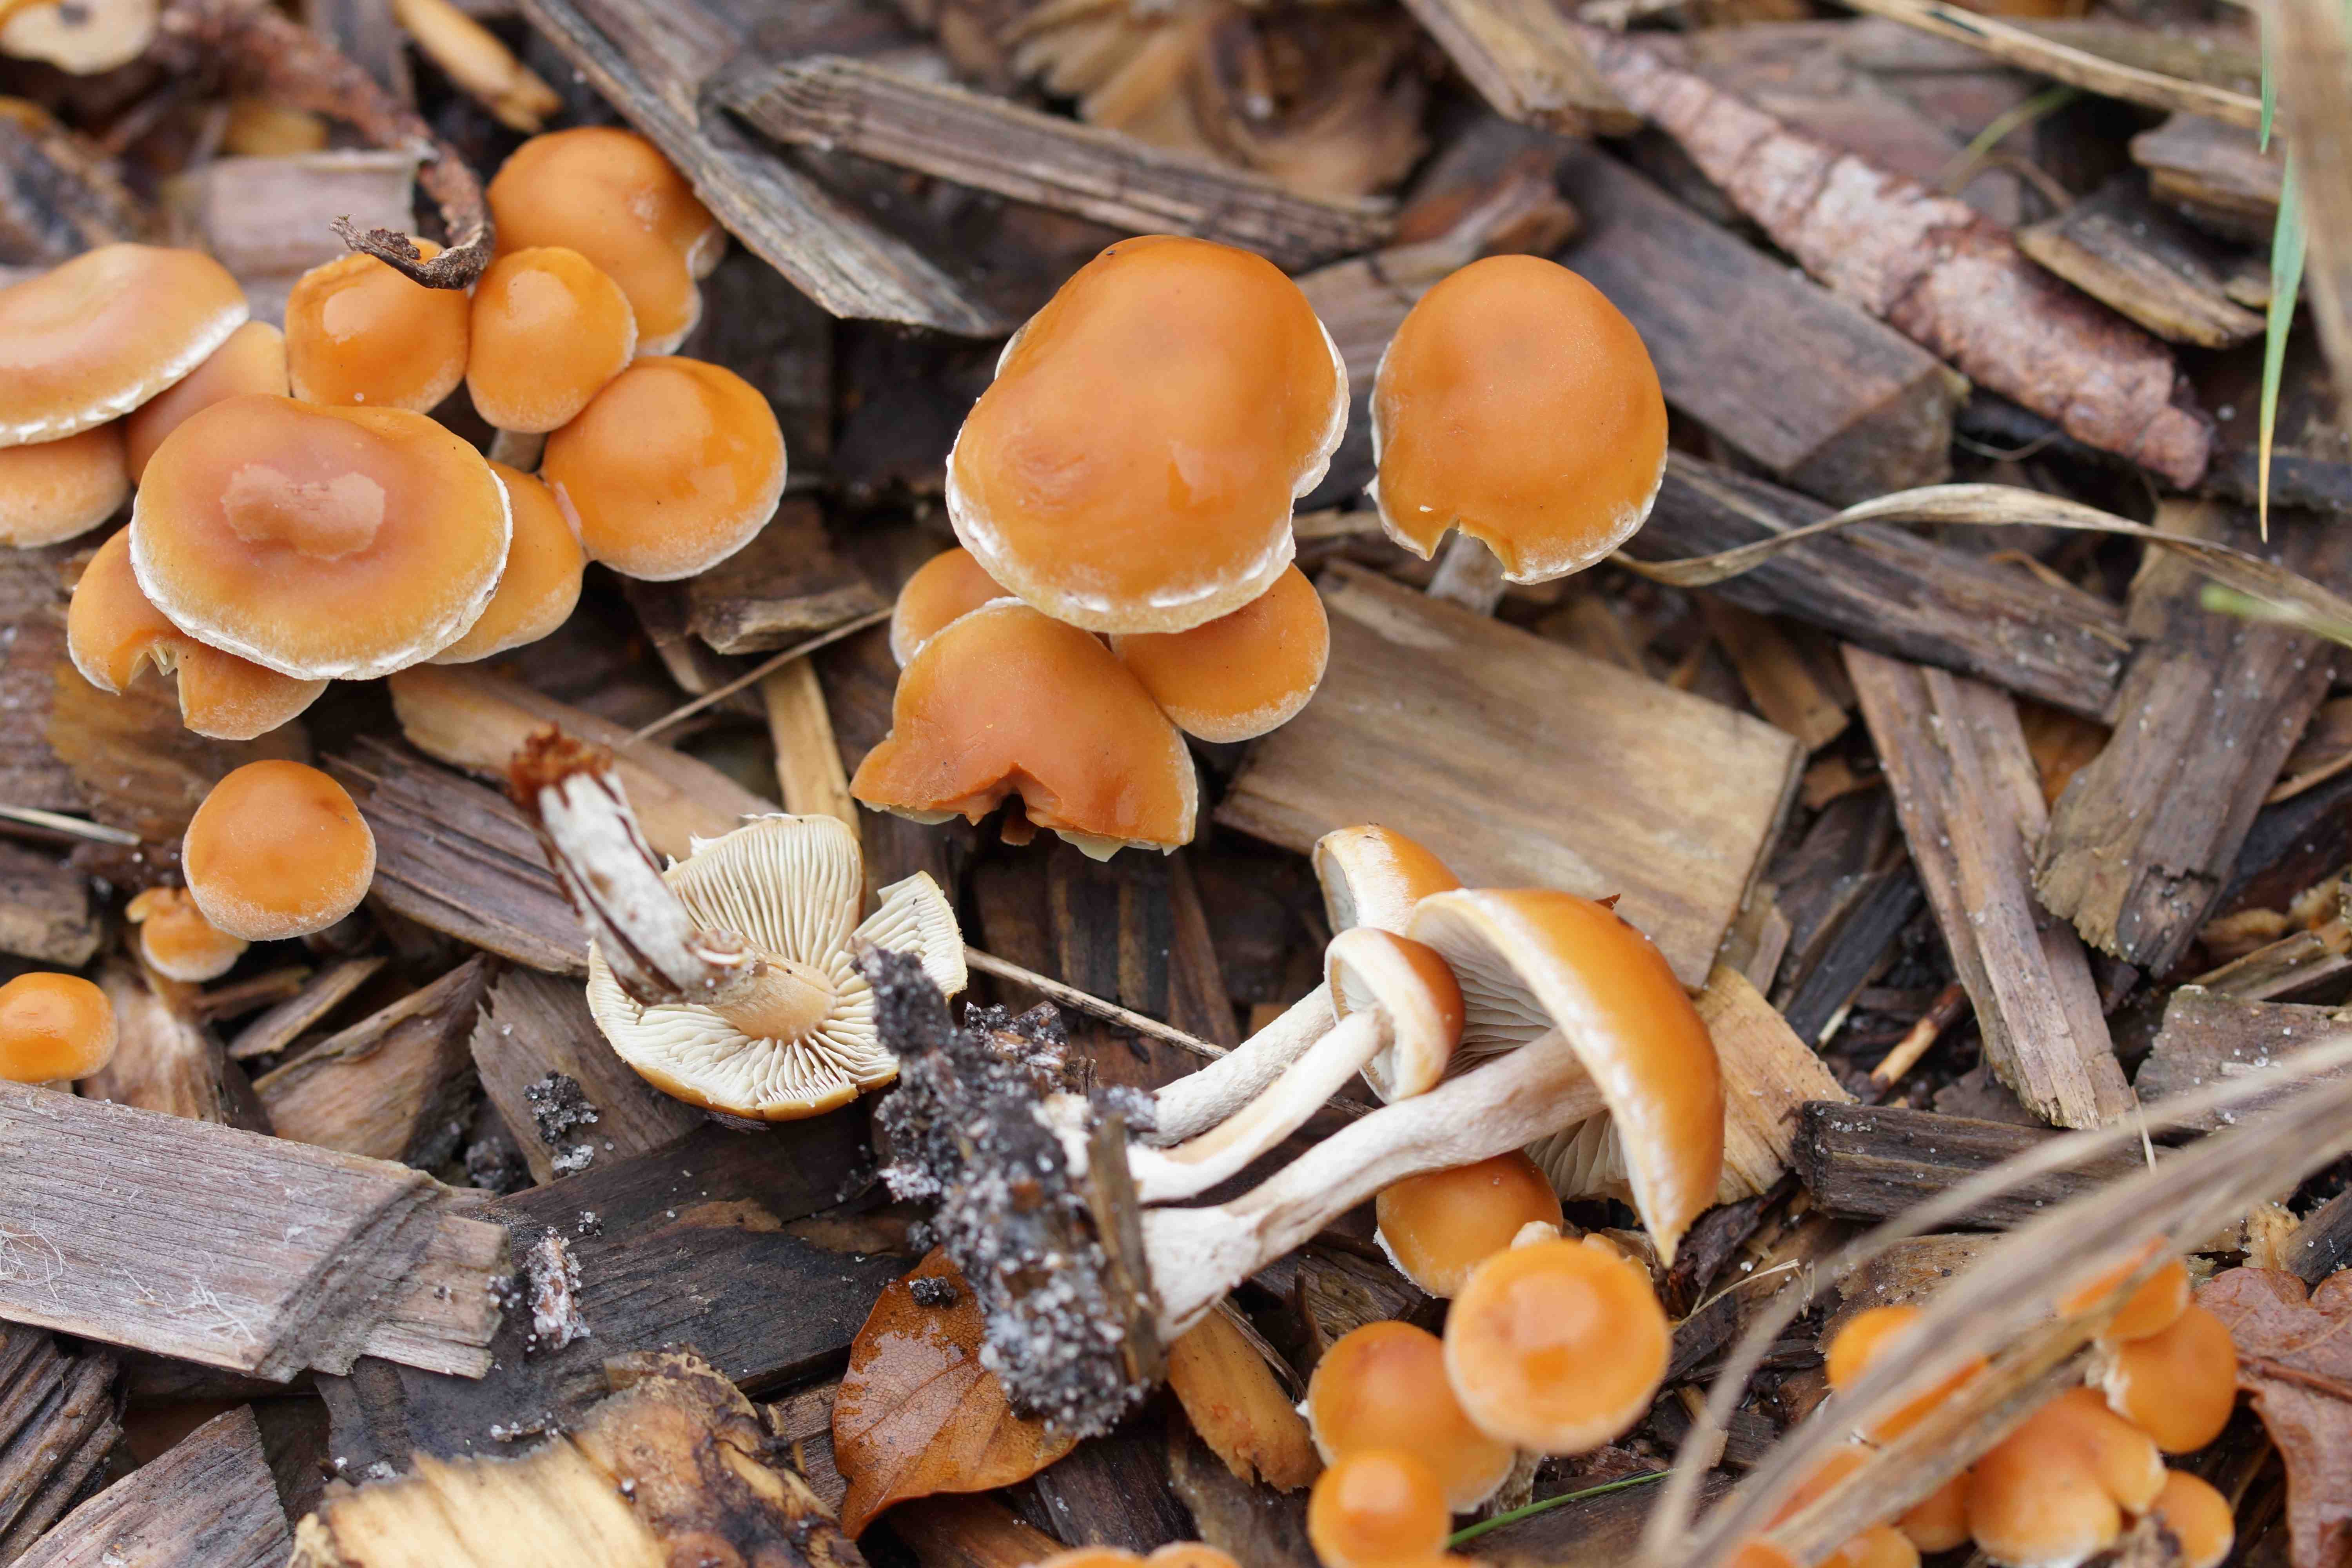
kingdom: Fungi
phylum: Basidiomycota
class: Agaricomycetes
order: Agaricales
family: Strophariaceae
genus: Hypholoma
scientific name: Hypholoma marginatum
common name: enlig svovlhat
